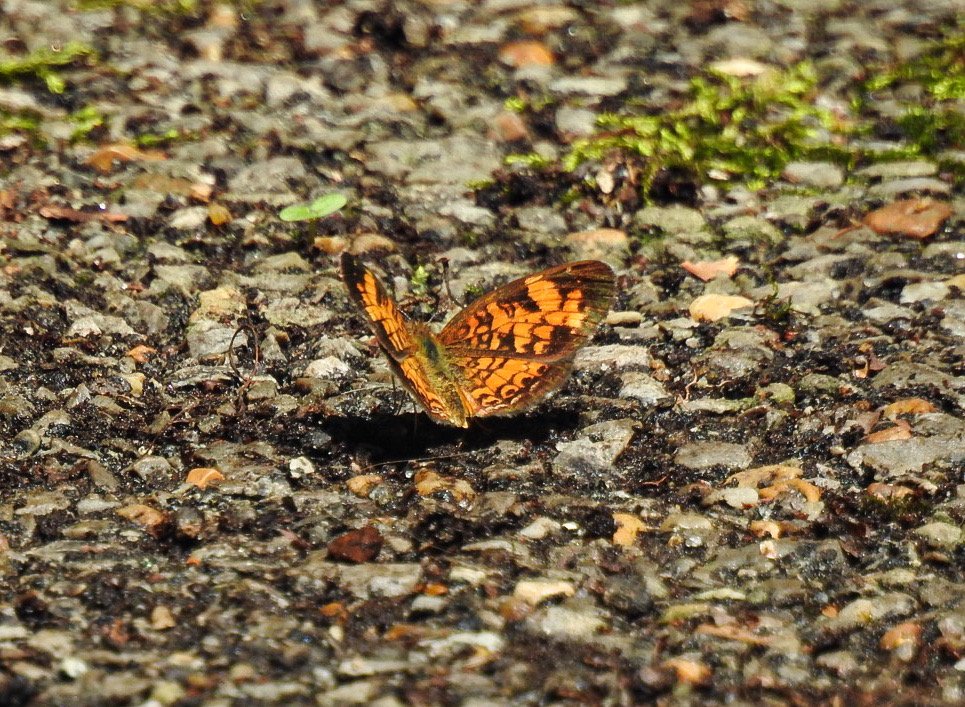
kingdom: Animalia
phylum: Arthropoda
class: Insecta
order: Lepidoptera
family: Nymphalidae
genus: Phyciodes
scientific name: Phyciodes tharos
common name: Pearl Crescent
